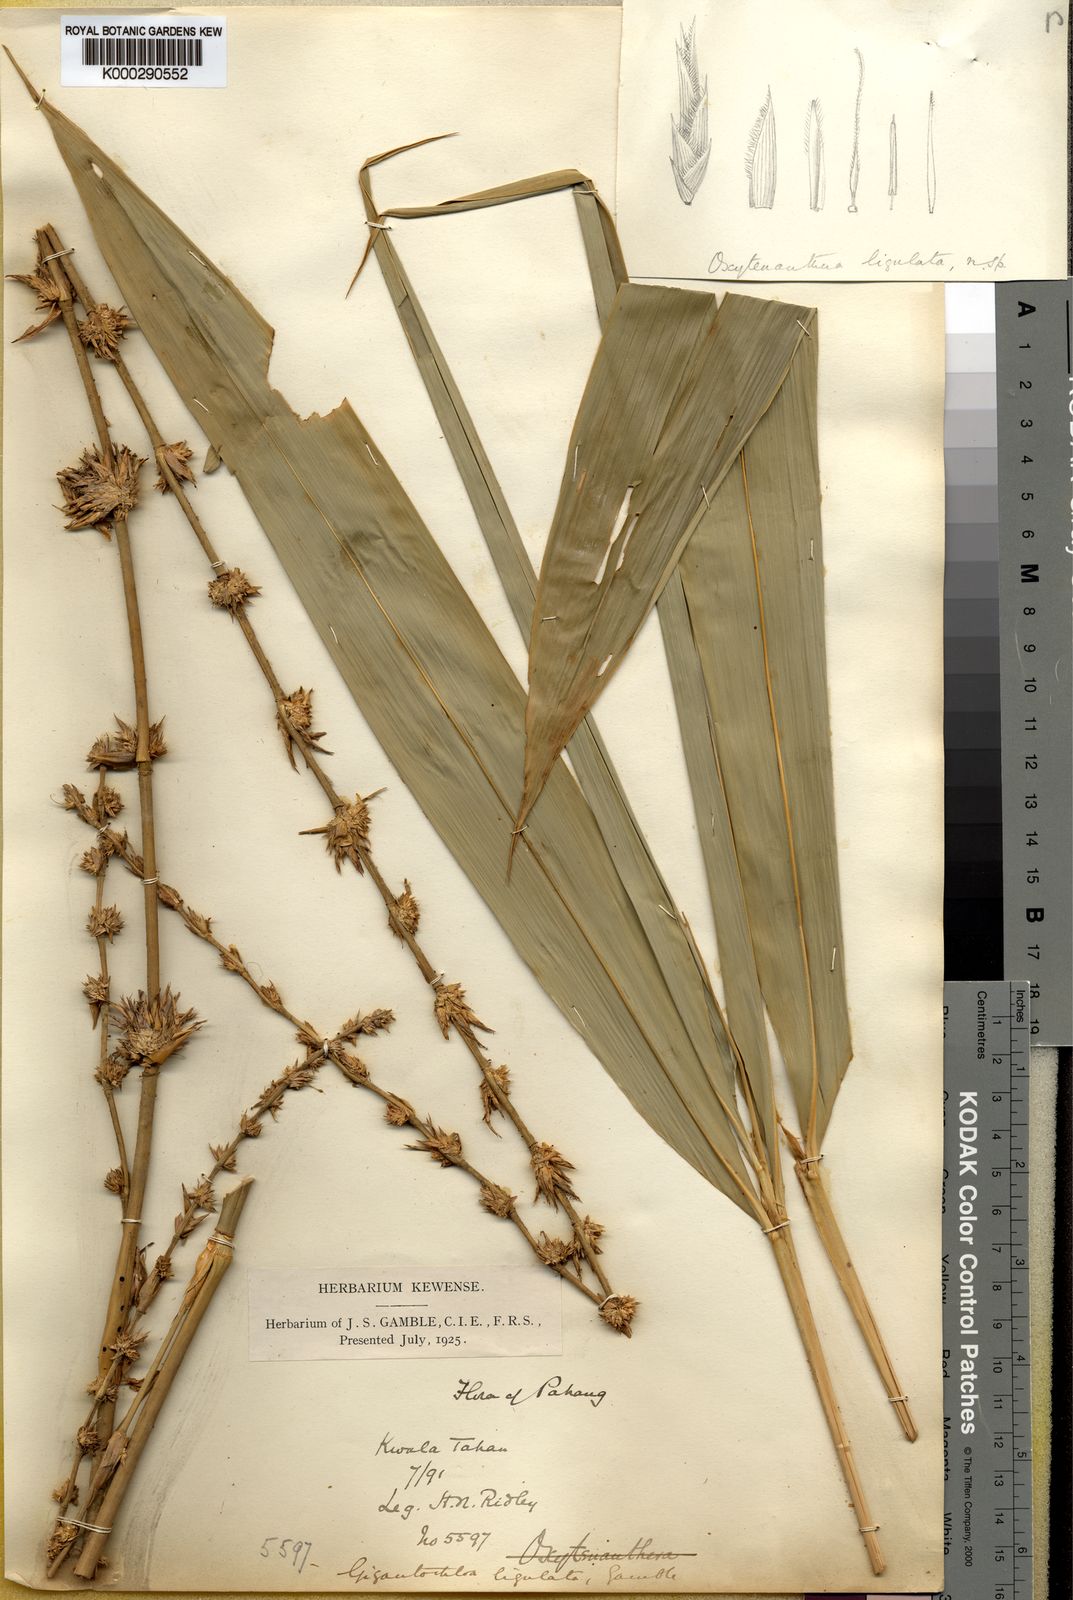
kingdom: Plantae
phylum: Tracheophyta
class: Liliopsida
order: Poales
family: Poaceae
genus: Gigantochloa
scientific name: Gigantochloa ligulata
